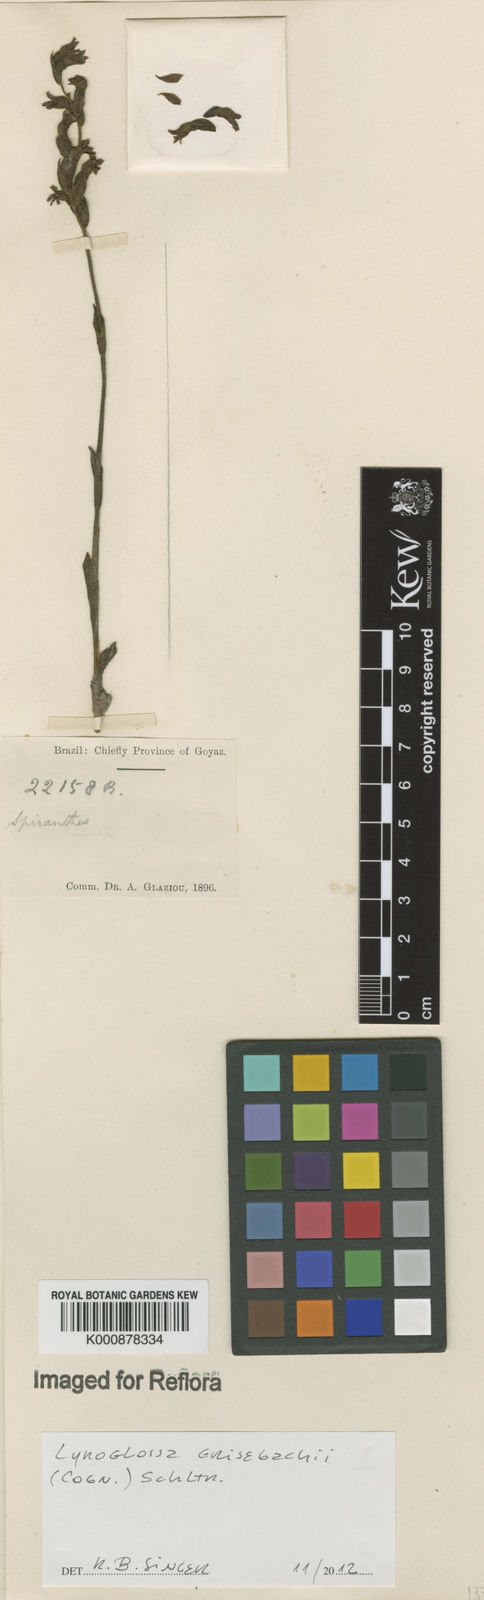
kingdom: Plantae
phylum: Tracheophyta
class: Liliopsida
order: Asparagales
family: Orchidaceae
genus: Lyroglossa
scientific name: Lyroglossa grisebachii
